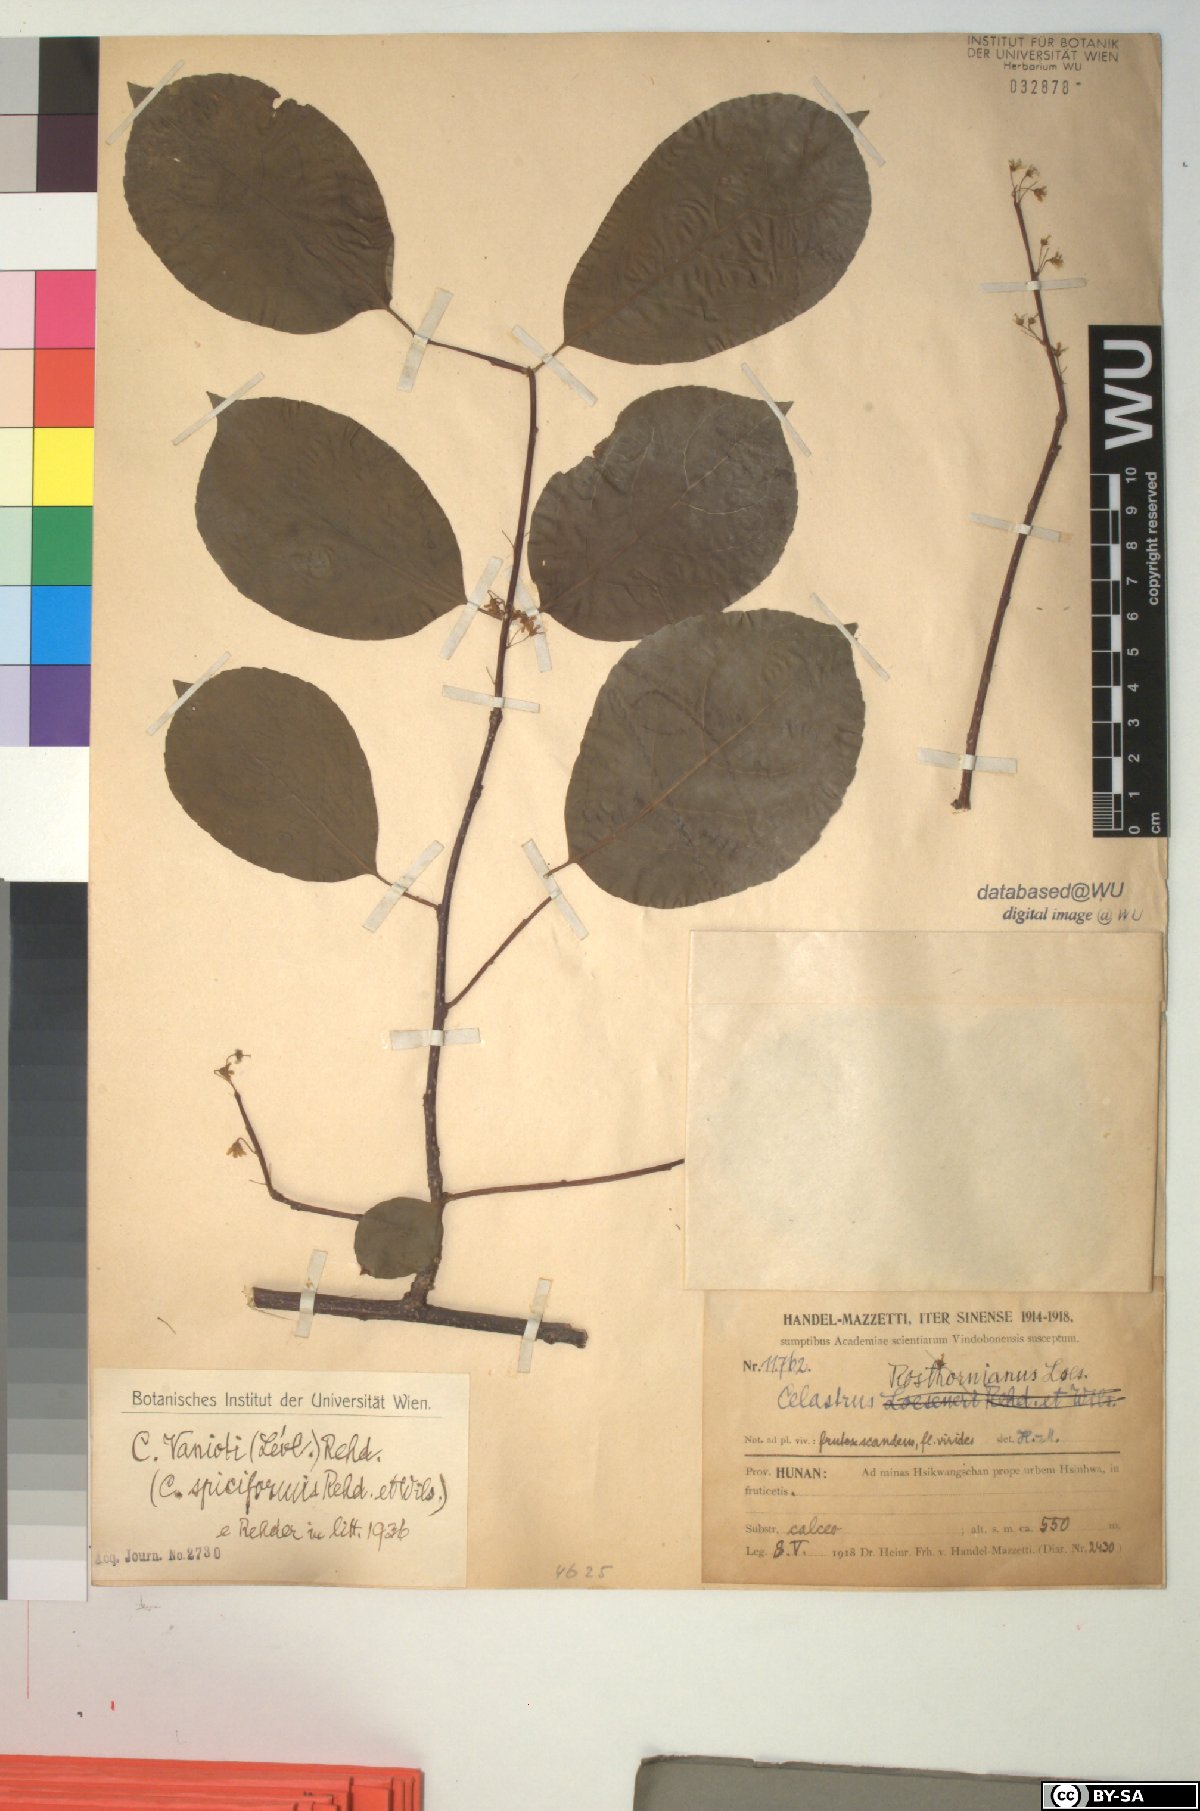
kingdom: Plantae
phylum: Tracheophyta
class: Magnoliopsida
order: Celastrales
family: Celastraceae
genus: Celastrus
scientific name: Celastrus vaniotii
